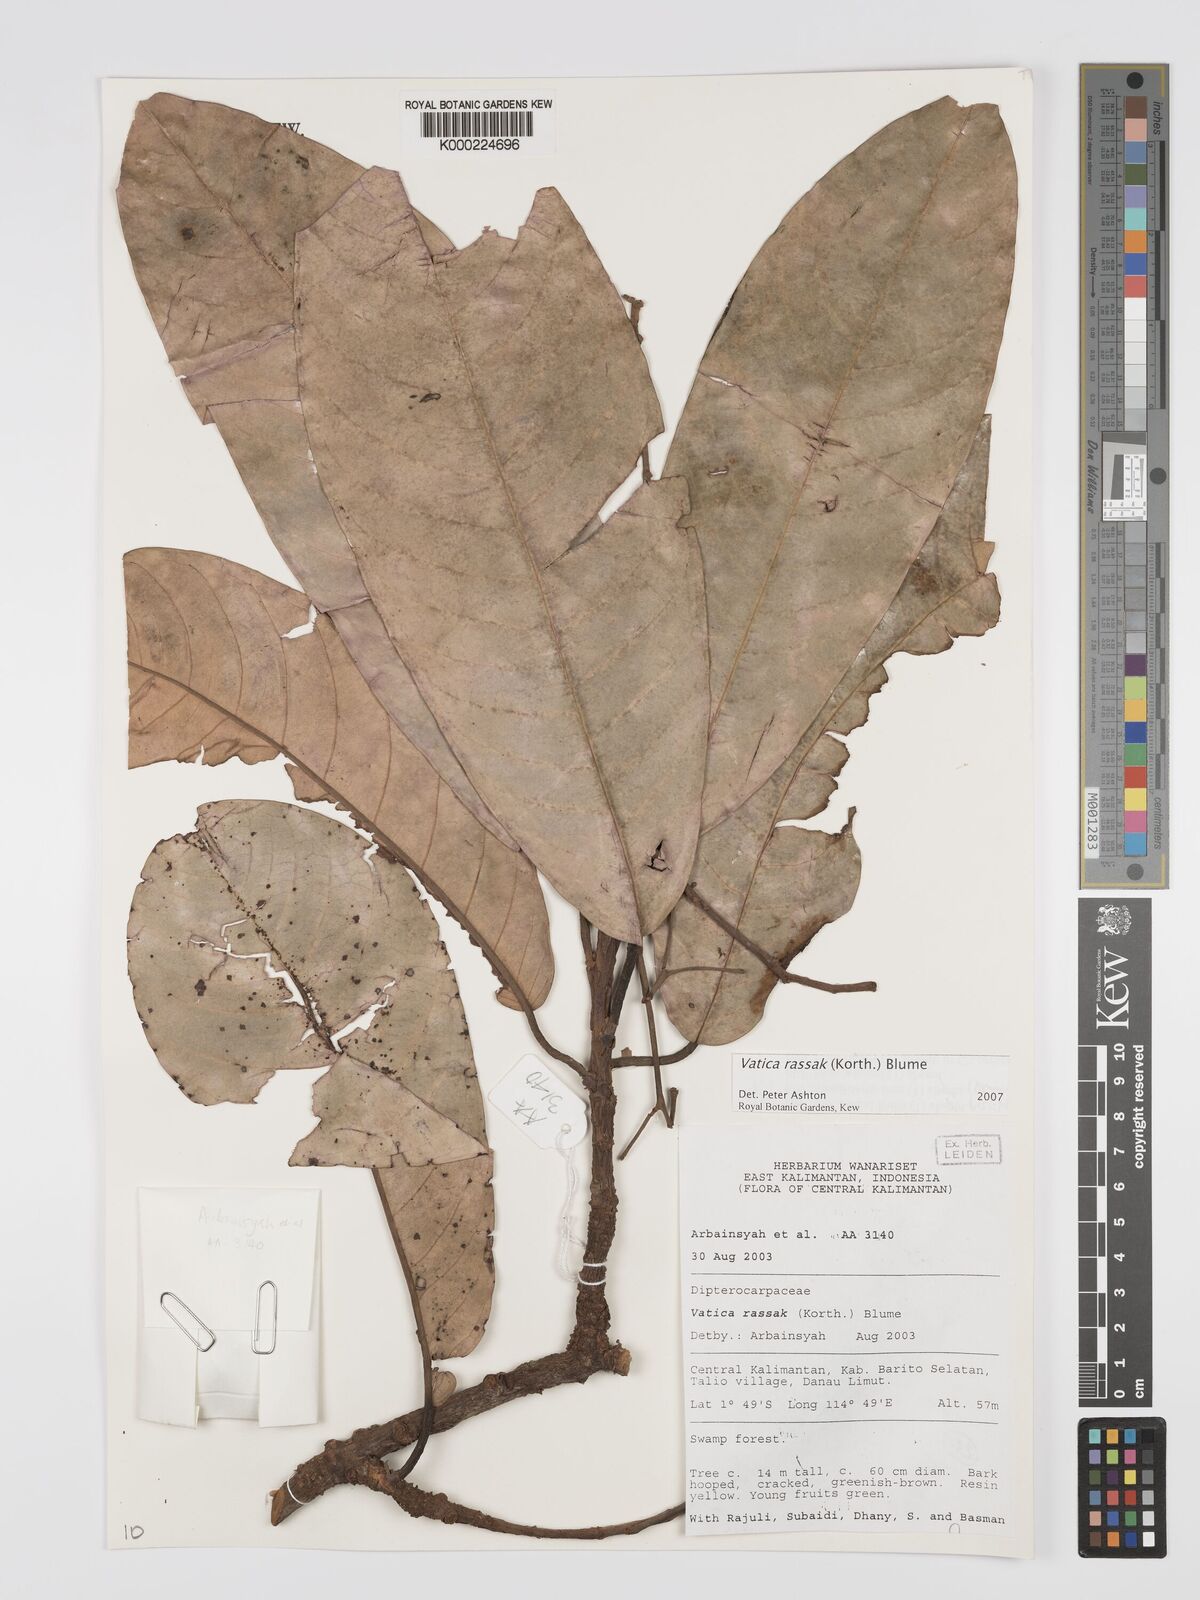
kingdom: Plantae
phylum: Tracheophyta
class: Magnoliopsida
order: Malvales
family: Dipterocarpaceae
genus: Vatica
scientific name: Vatica rassak
